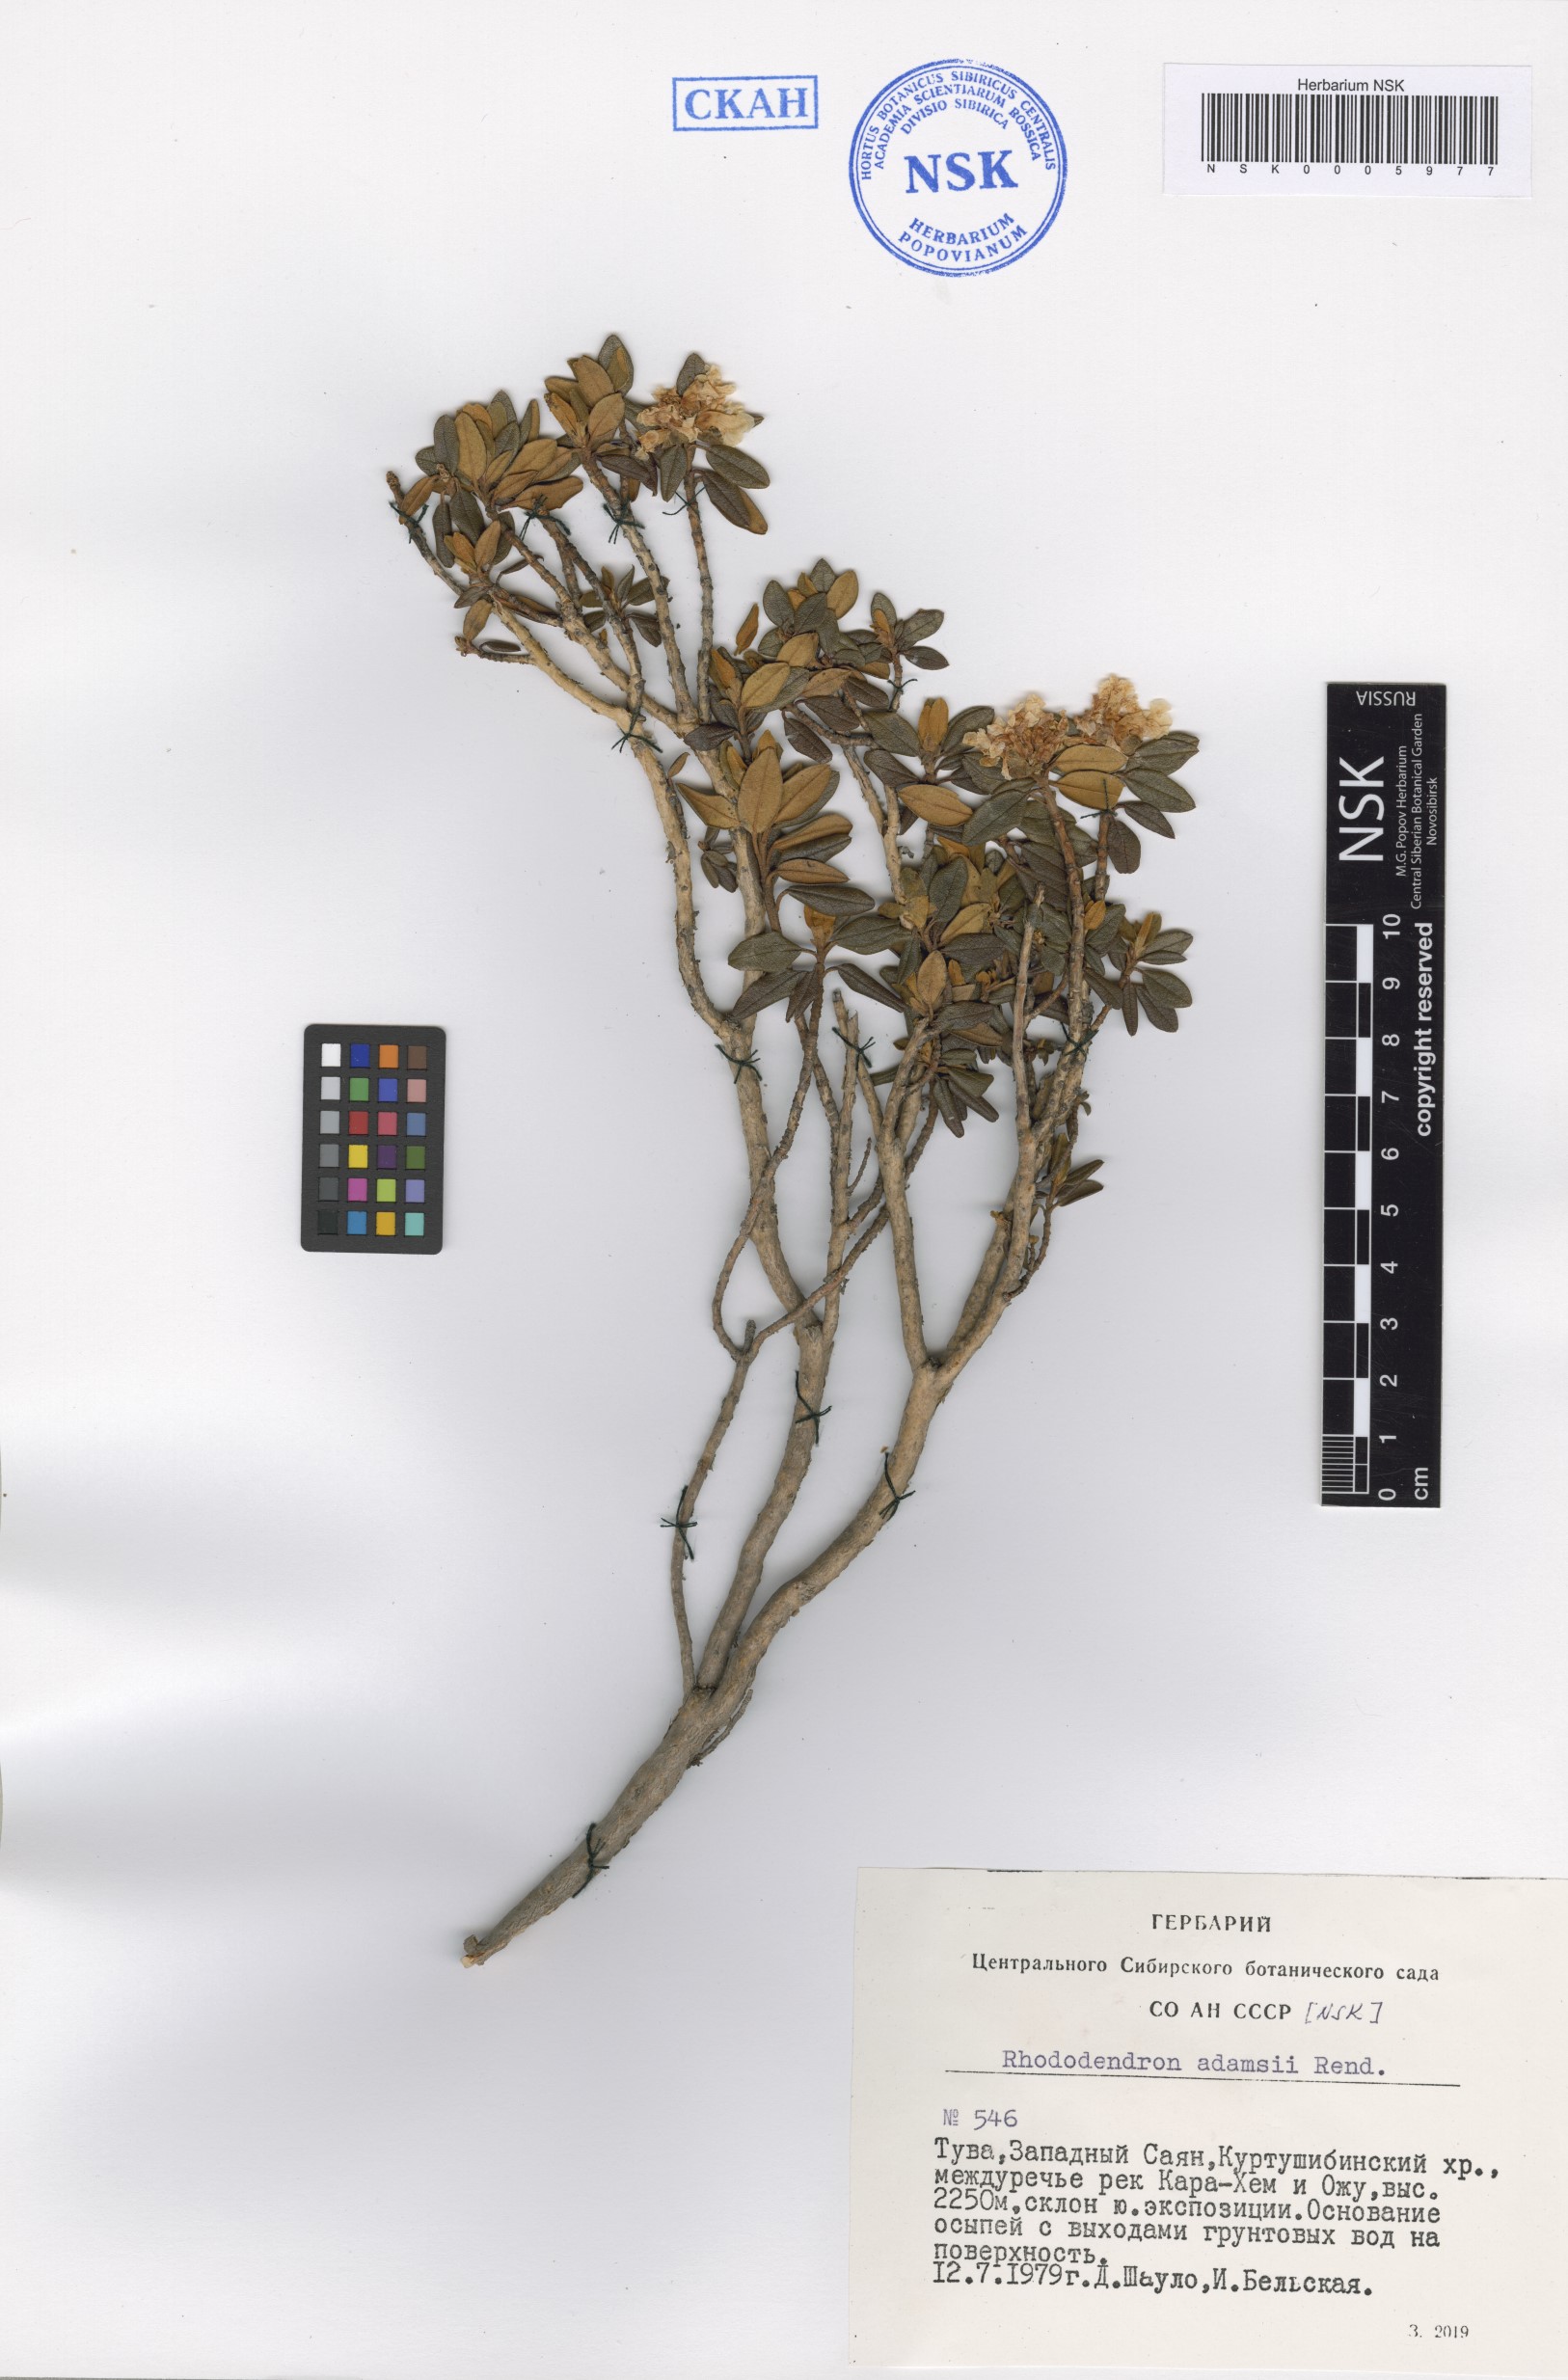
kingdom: Plantae
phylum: Tracheophyta
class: Magnoliopsida
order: Ericales
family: Ericaceae
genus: Rhododendron
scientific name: Rhododendron adamsii
